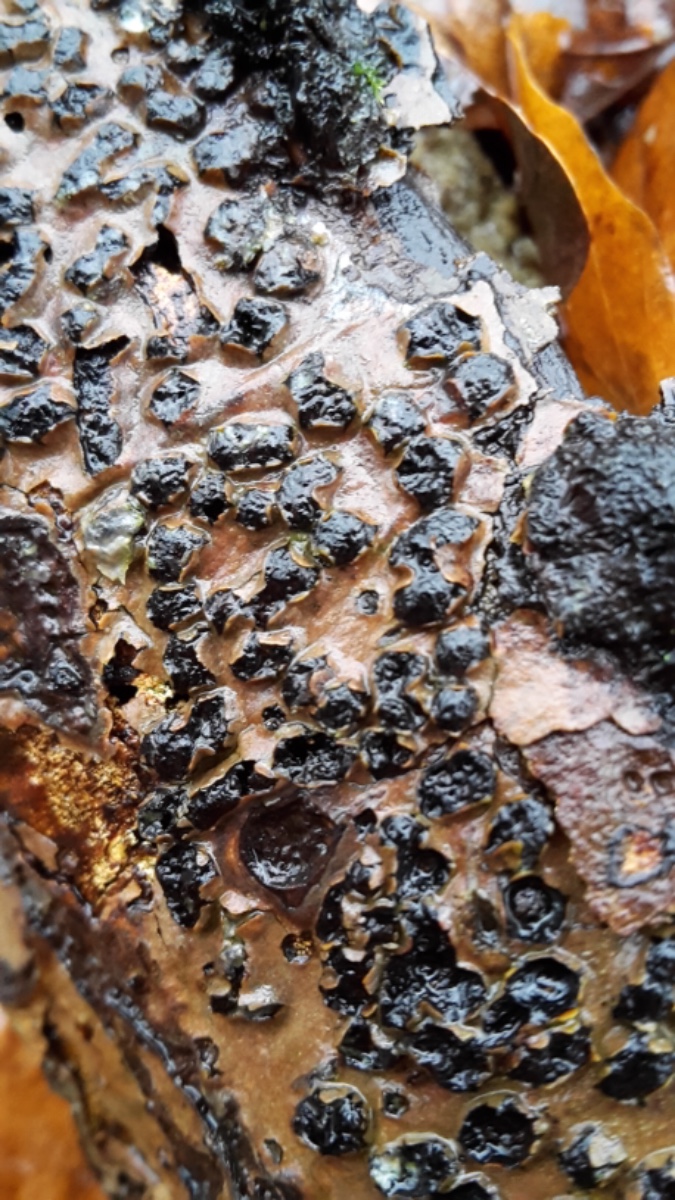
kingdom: Fungi
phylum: Ascomycota
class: Sordariomycetes
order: Xylariales
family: Diatrypaceae
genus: Diatrypella
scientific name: Diatrypella quercina
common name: ege-kulskorpe
